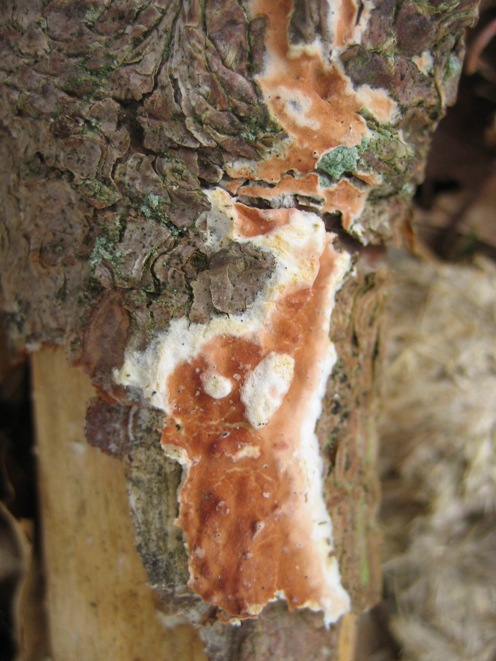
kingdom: Fungi
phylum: Basidiomycota
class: Agaricomycetes
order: Polyporales
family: Irpicaceae
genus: Meruliopsis
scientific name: Meruliopsis taxicola
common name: purpurbrun foldporesvamp
